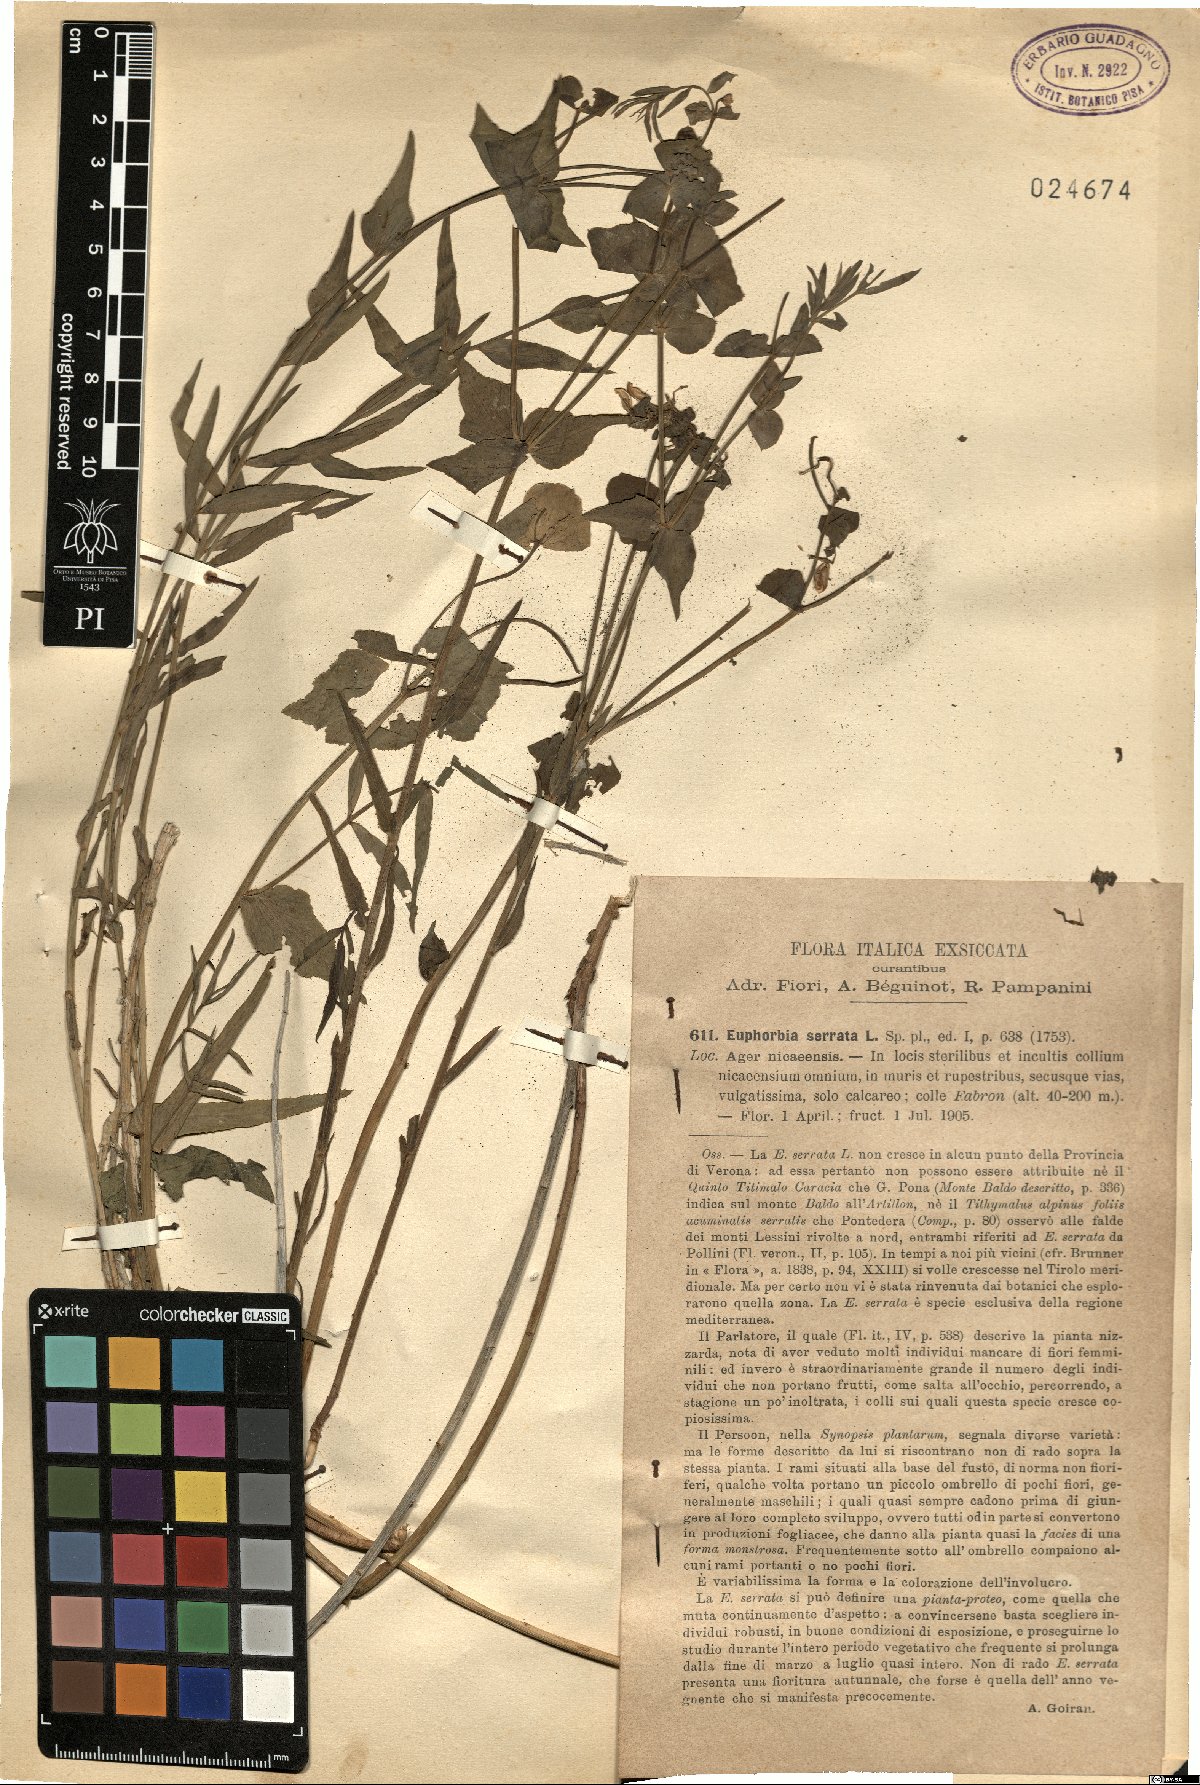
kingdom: Plantae
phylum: Tracheophyta
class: Magnoliopsida
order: Malpighiales
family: Euphorbiaceae
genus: Euphorbia
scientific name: Euphorbia serrata
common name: Serrate spurge
